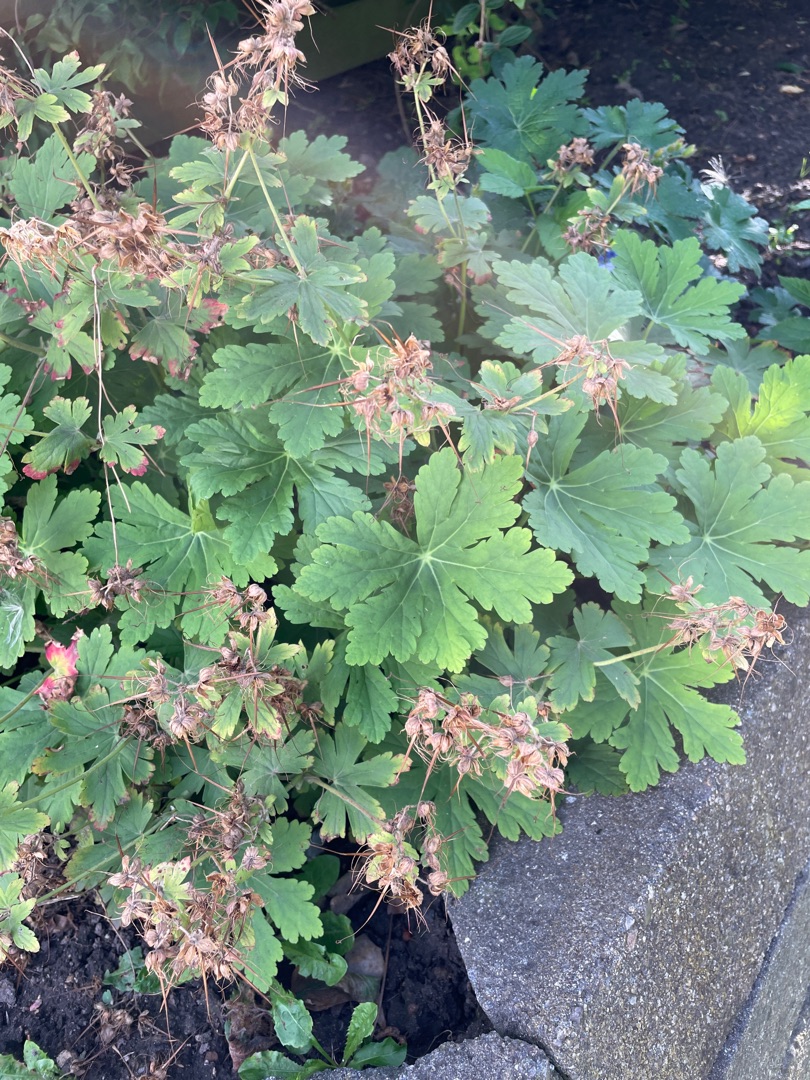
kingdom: Plantae
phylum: Tracheophyta
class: Magnoliopsida
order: Geraniales
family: Geraniaceae
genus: Geranium
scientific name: Geranium macrorrhizum
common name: Storrodet storkenæb
